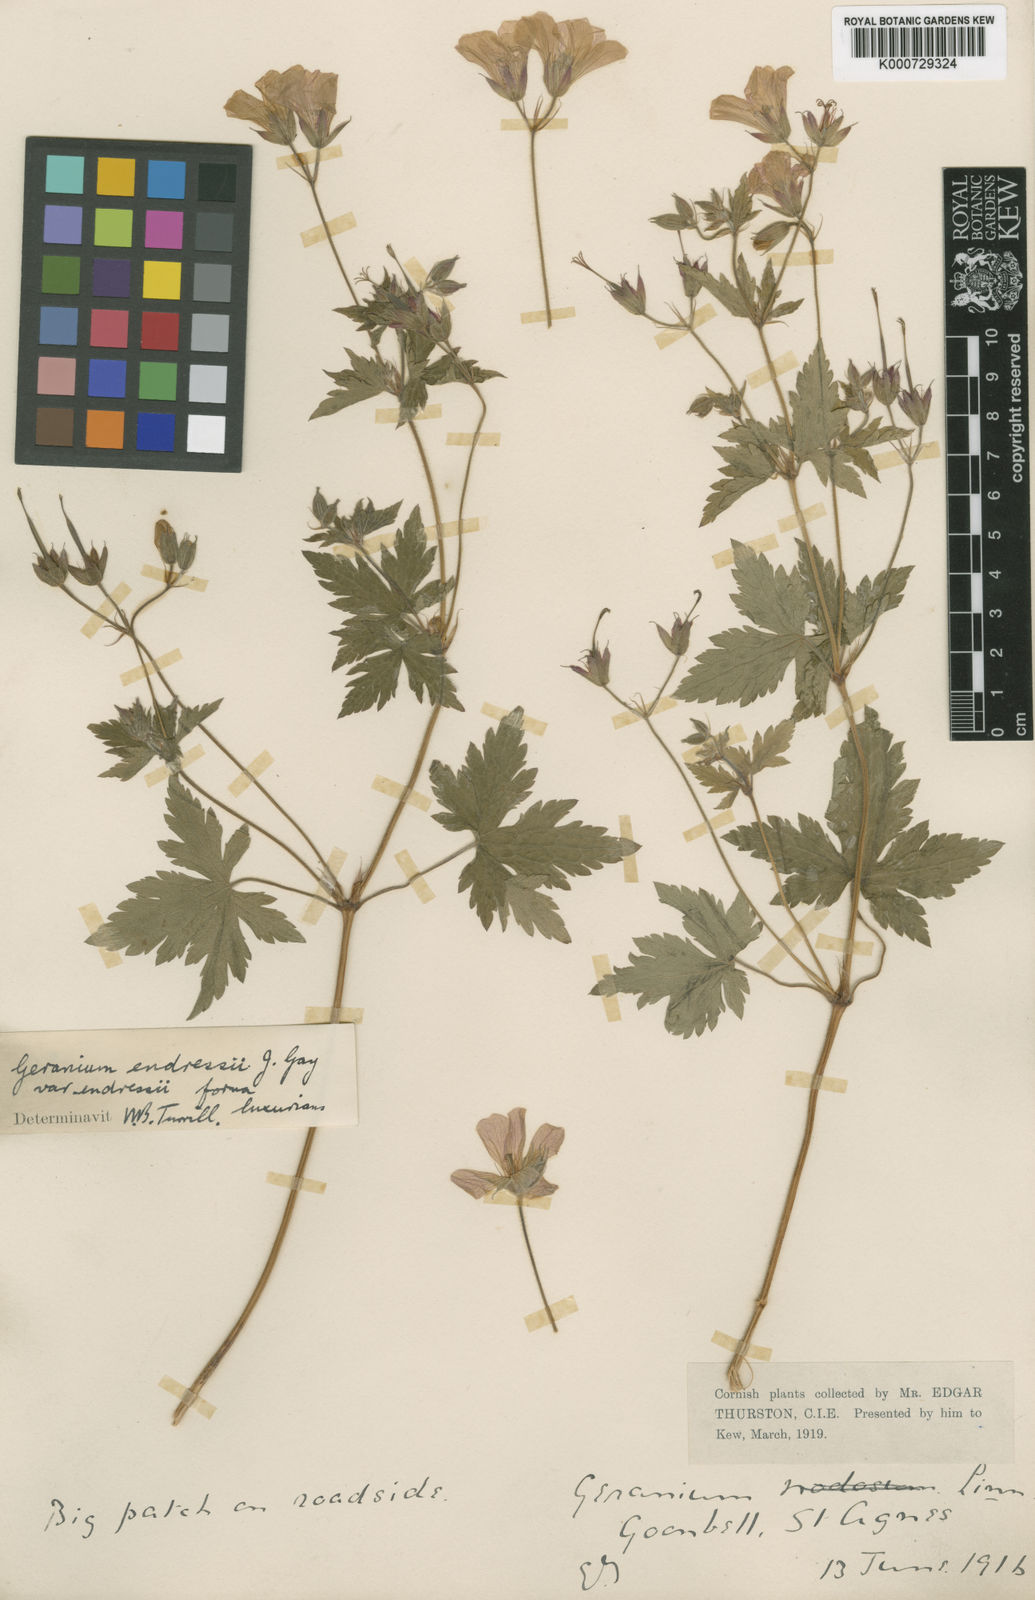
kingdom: Plantae
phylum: Tracheophyta
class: Magnoliopsida
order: Geraniales
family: Geraniaceae
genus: Geranium
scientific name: Geranium endressii
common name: French crane's-bill
